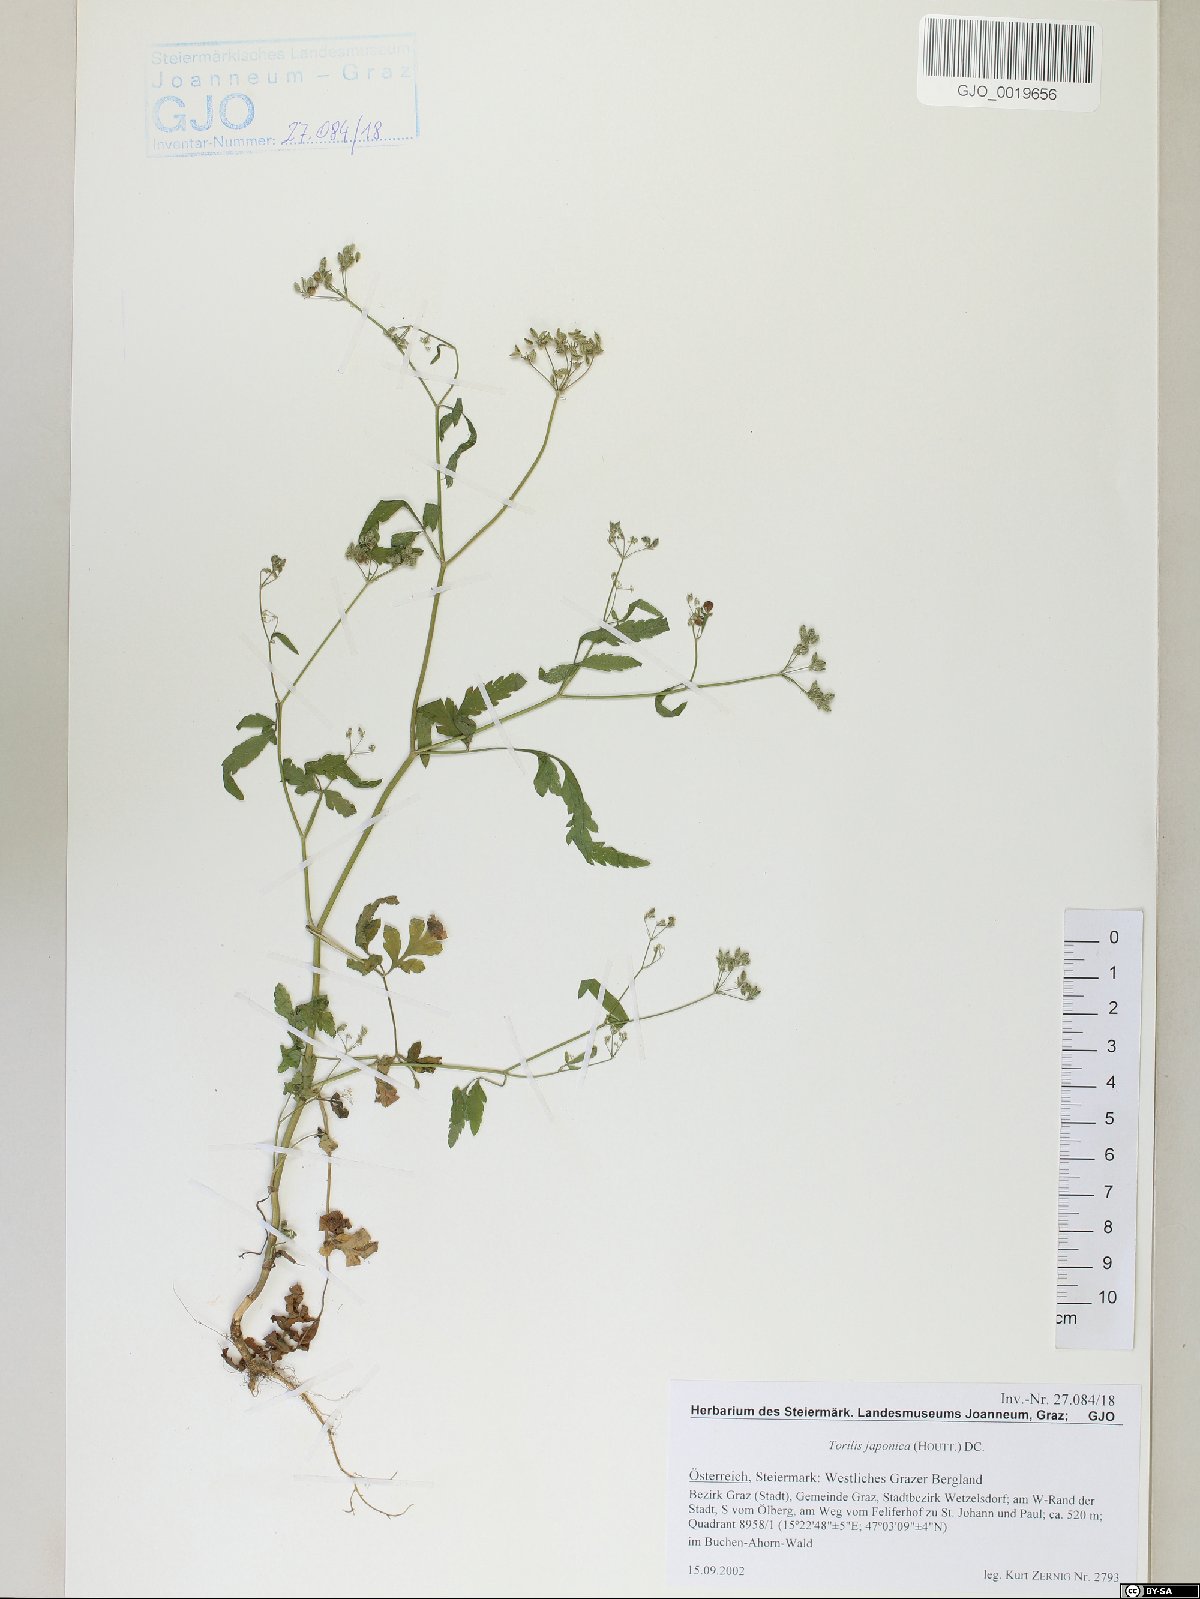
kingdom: Plantae
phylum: Tracheophyta
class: Magnoliopsida
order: Apiales
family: Apiaceae
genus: Torilis
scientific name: Torilis japonica
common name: Upright hedge-parsley
